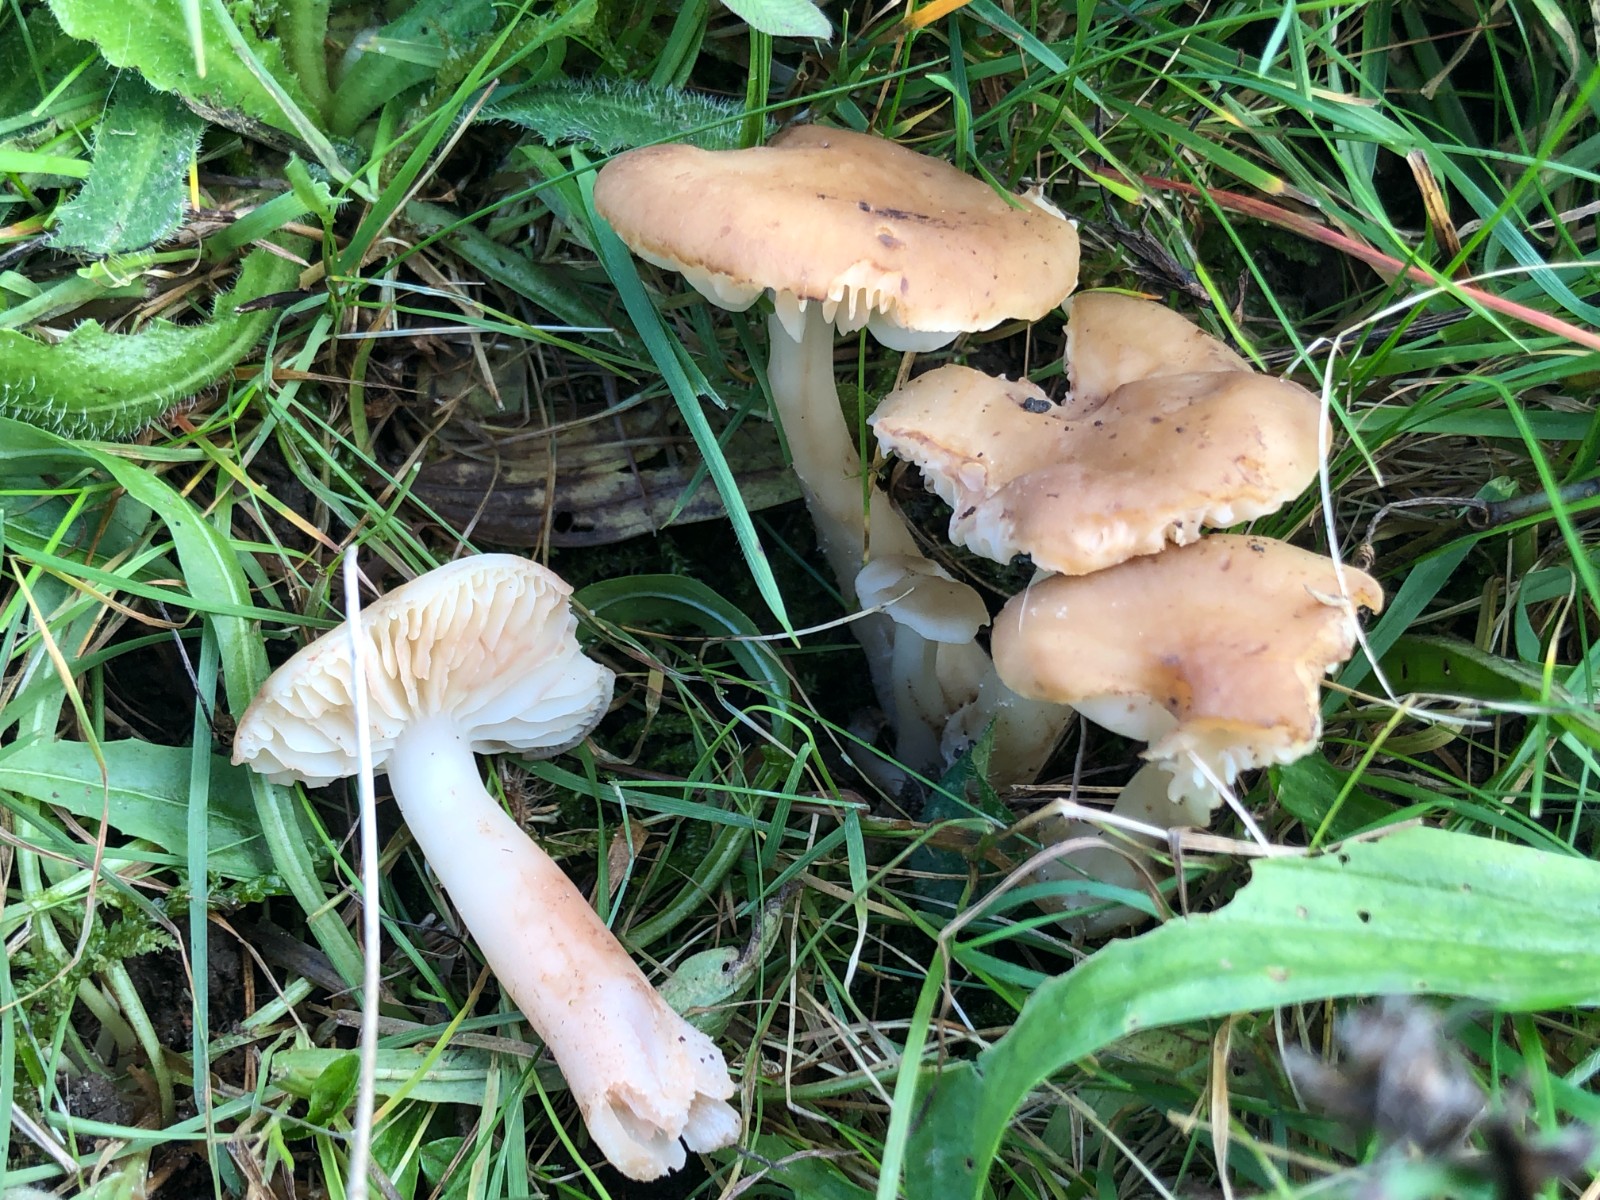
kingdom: Fungi
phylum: Basidiomycota
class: Agaricomycetes
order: Agaricales
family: Hygrophoraceae
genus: Hygrocybe
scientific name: Hygrocybe ingrata
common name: Jensens vokshat
